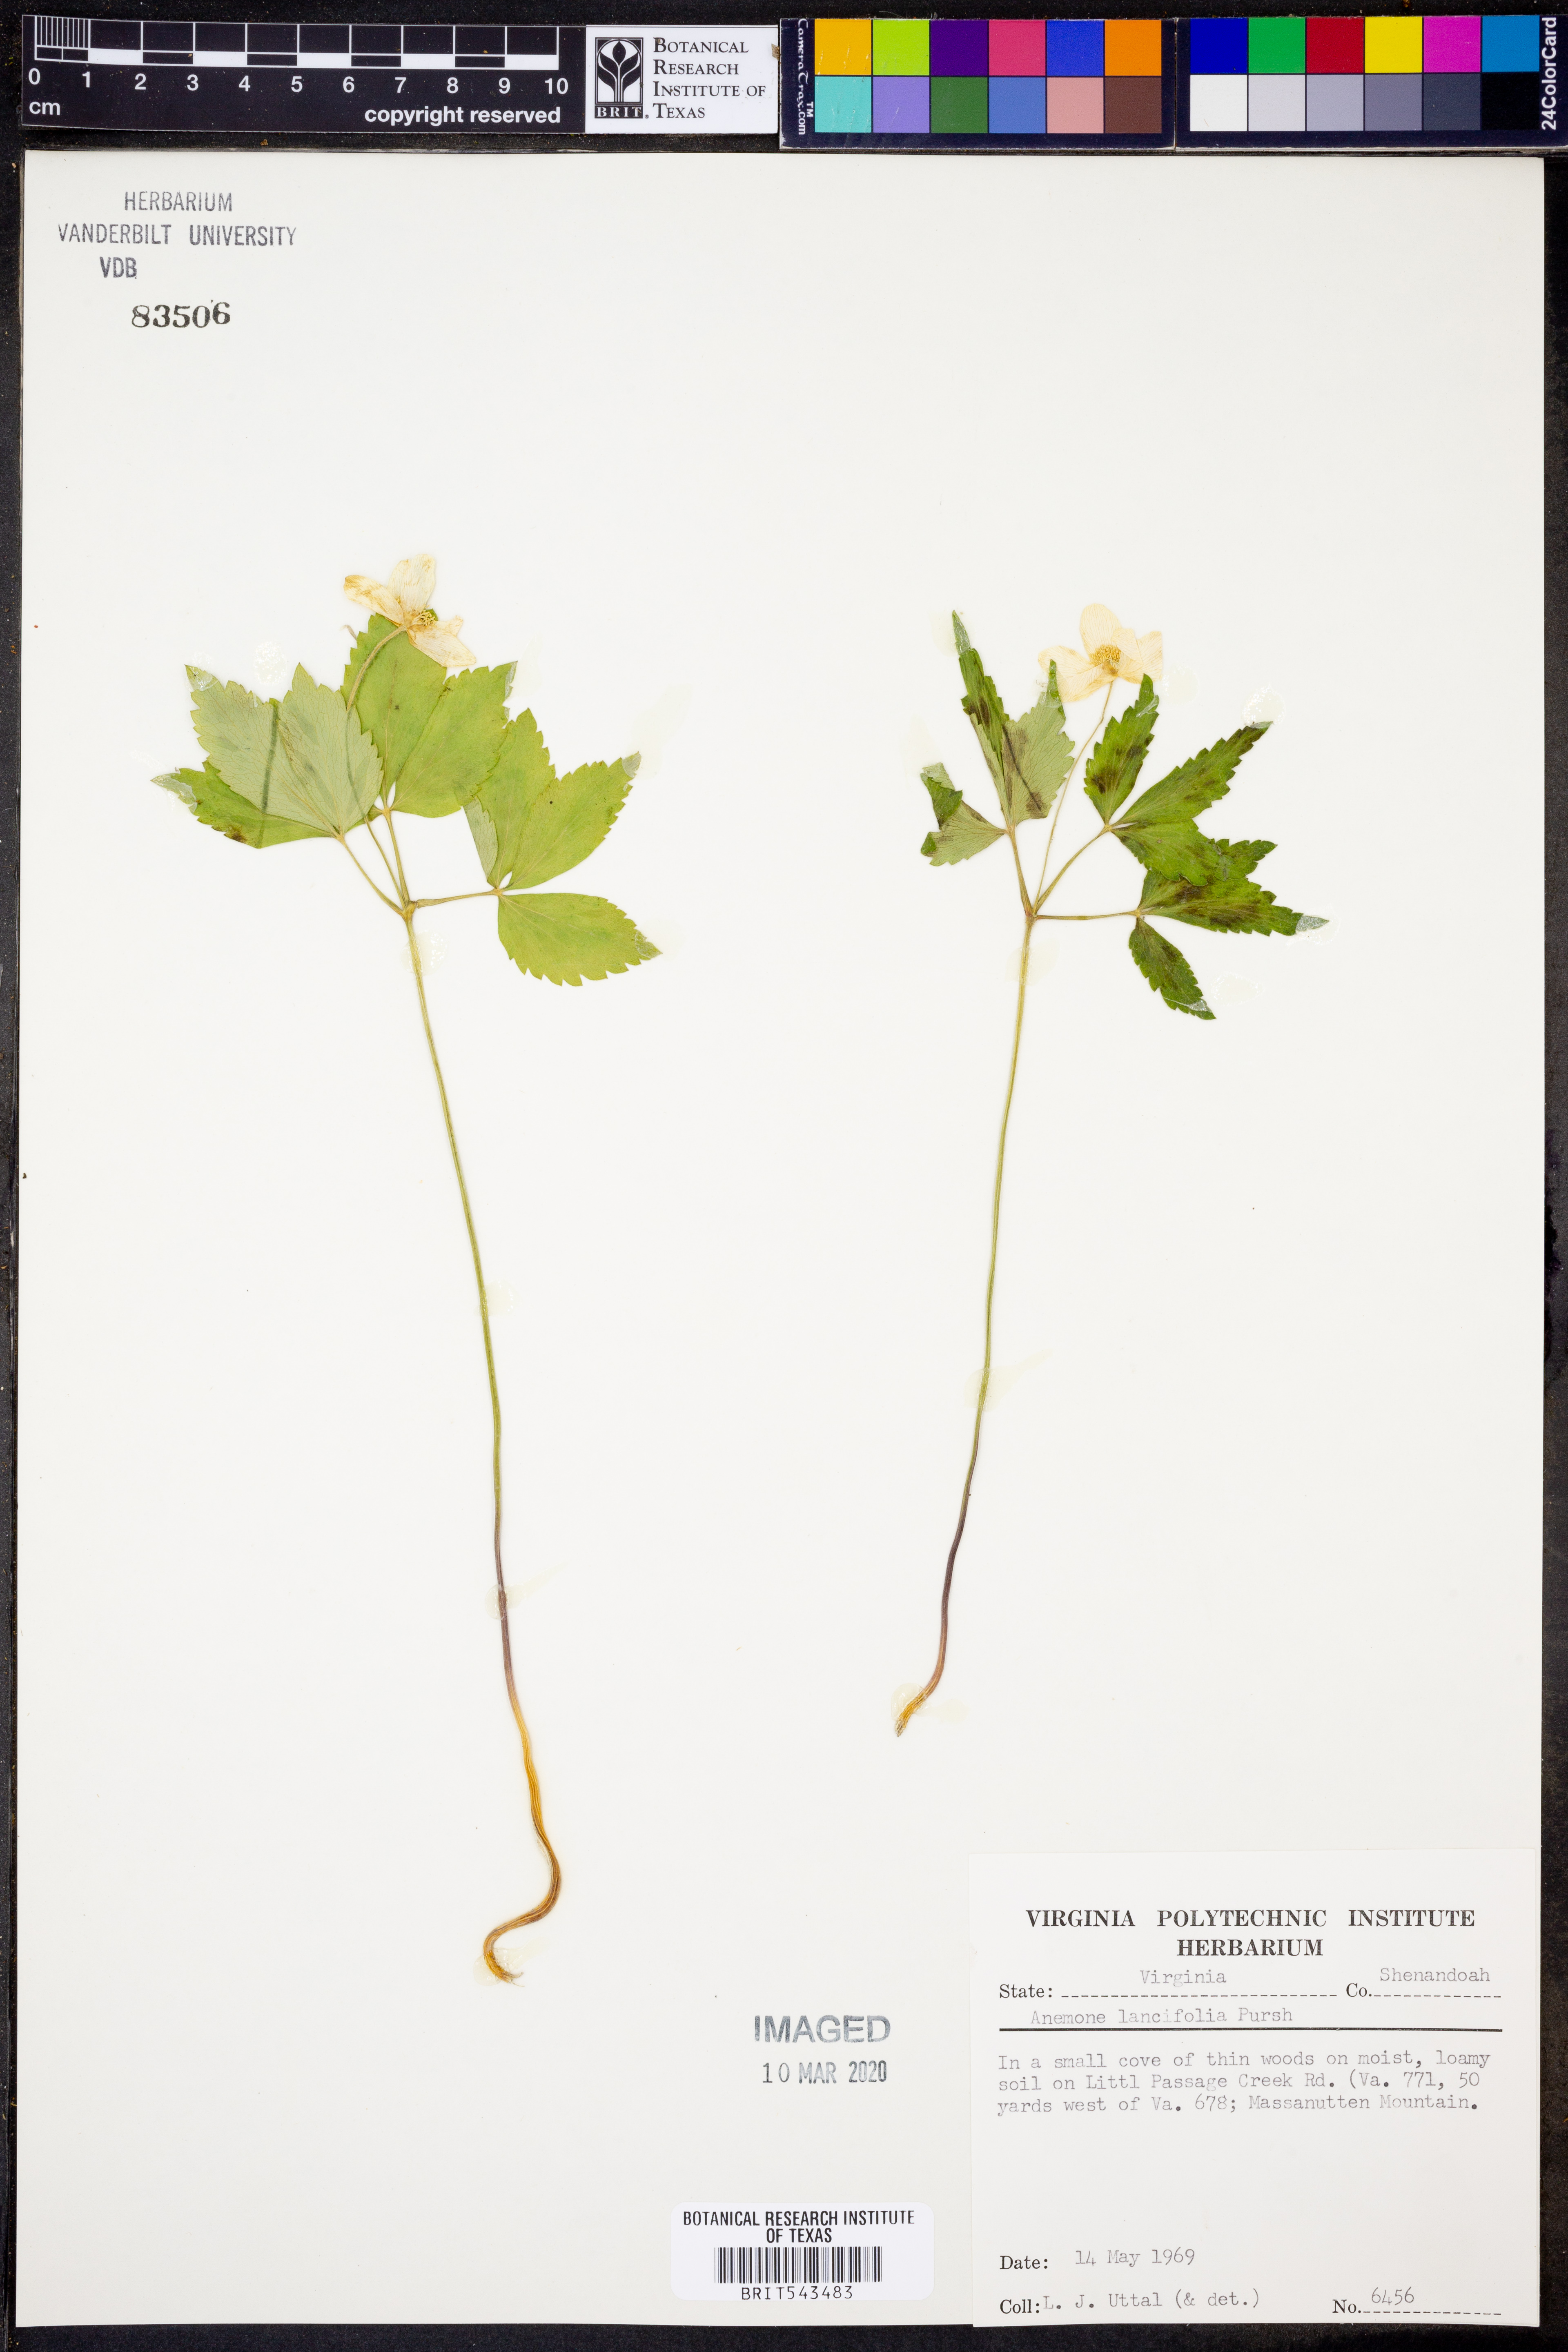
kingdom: Plantae
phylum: Tracheophyta
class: Magnoliopsida
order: Ranunculales
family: Ranunculaceae
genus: Anemone
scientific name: Anemone lancifolia
